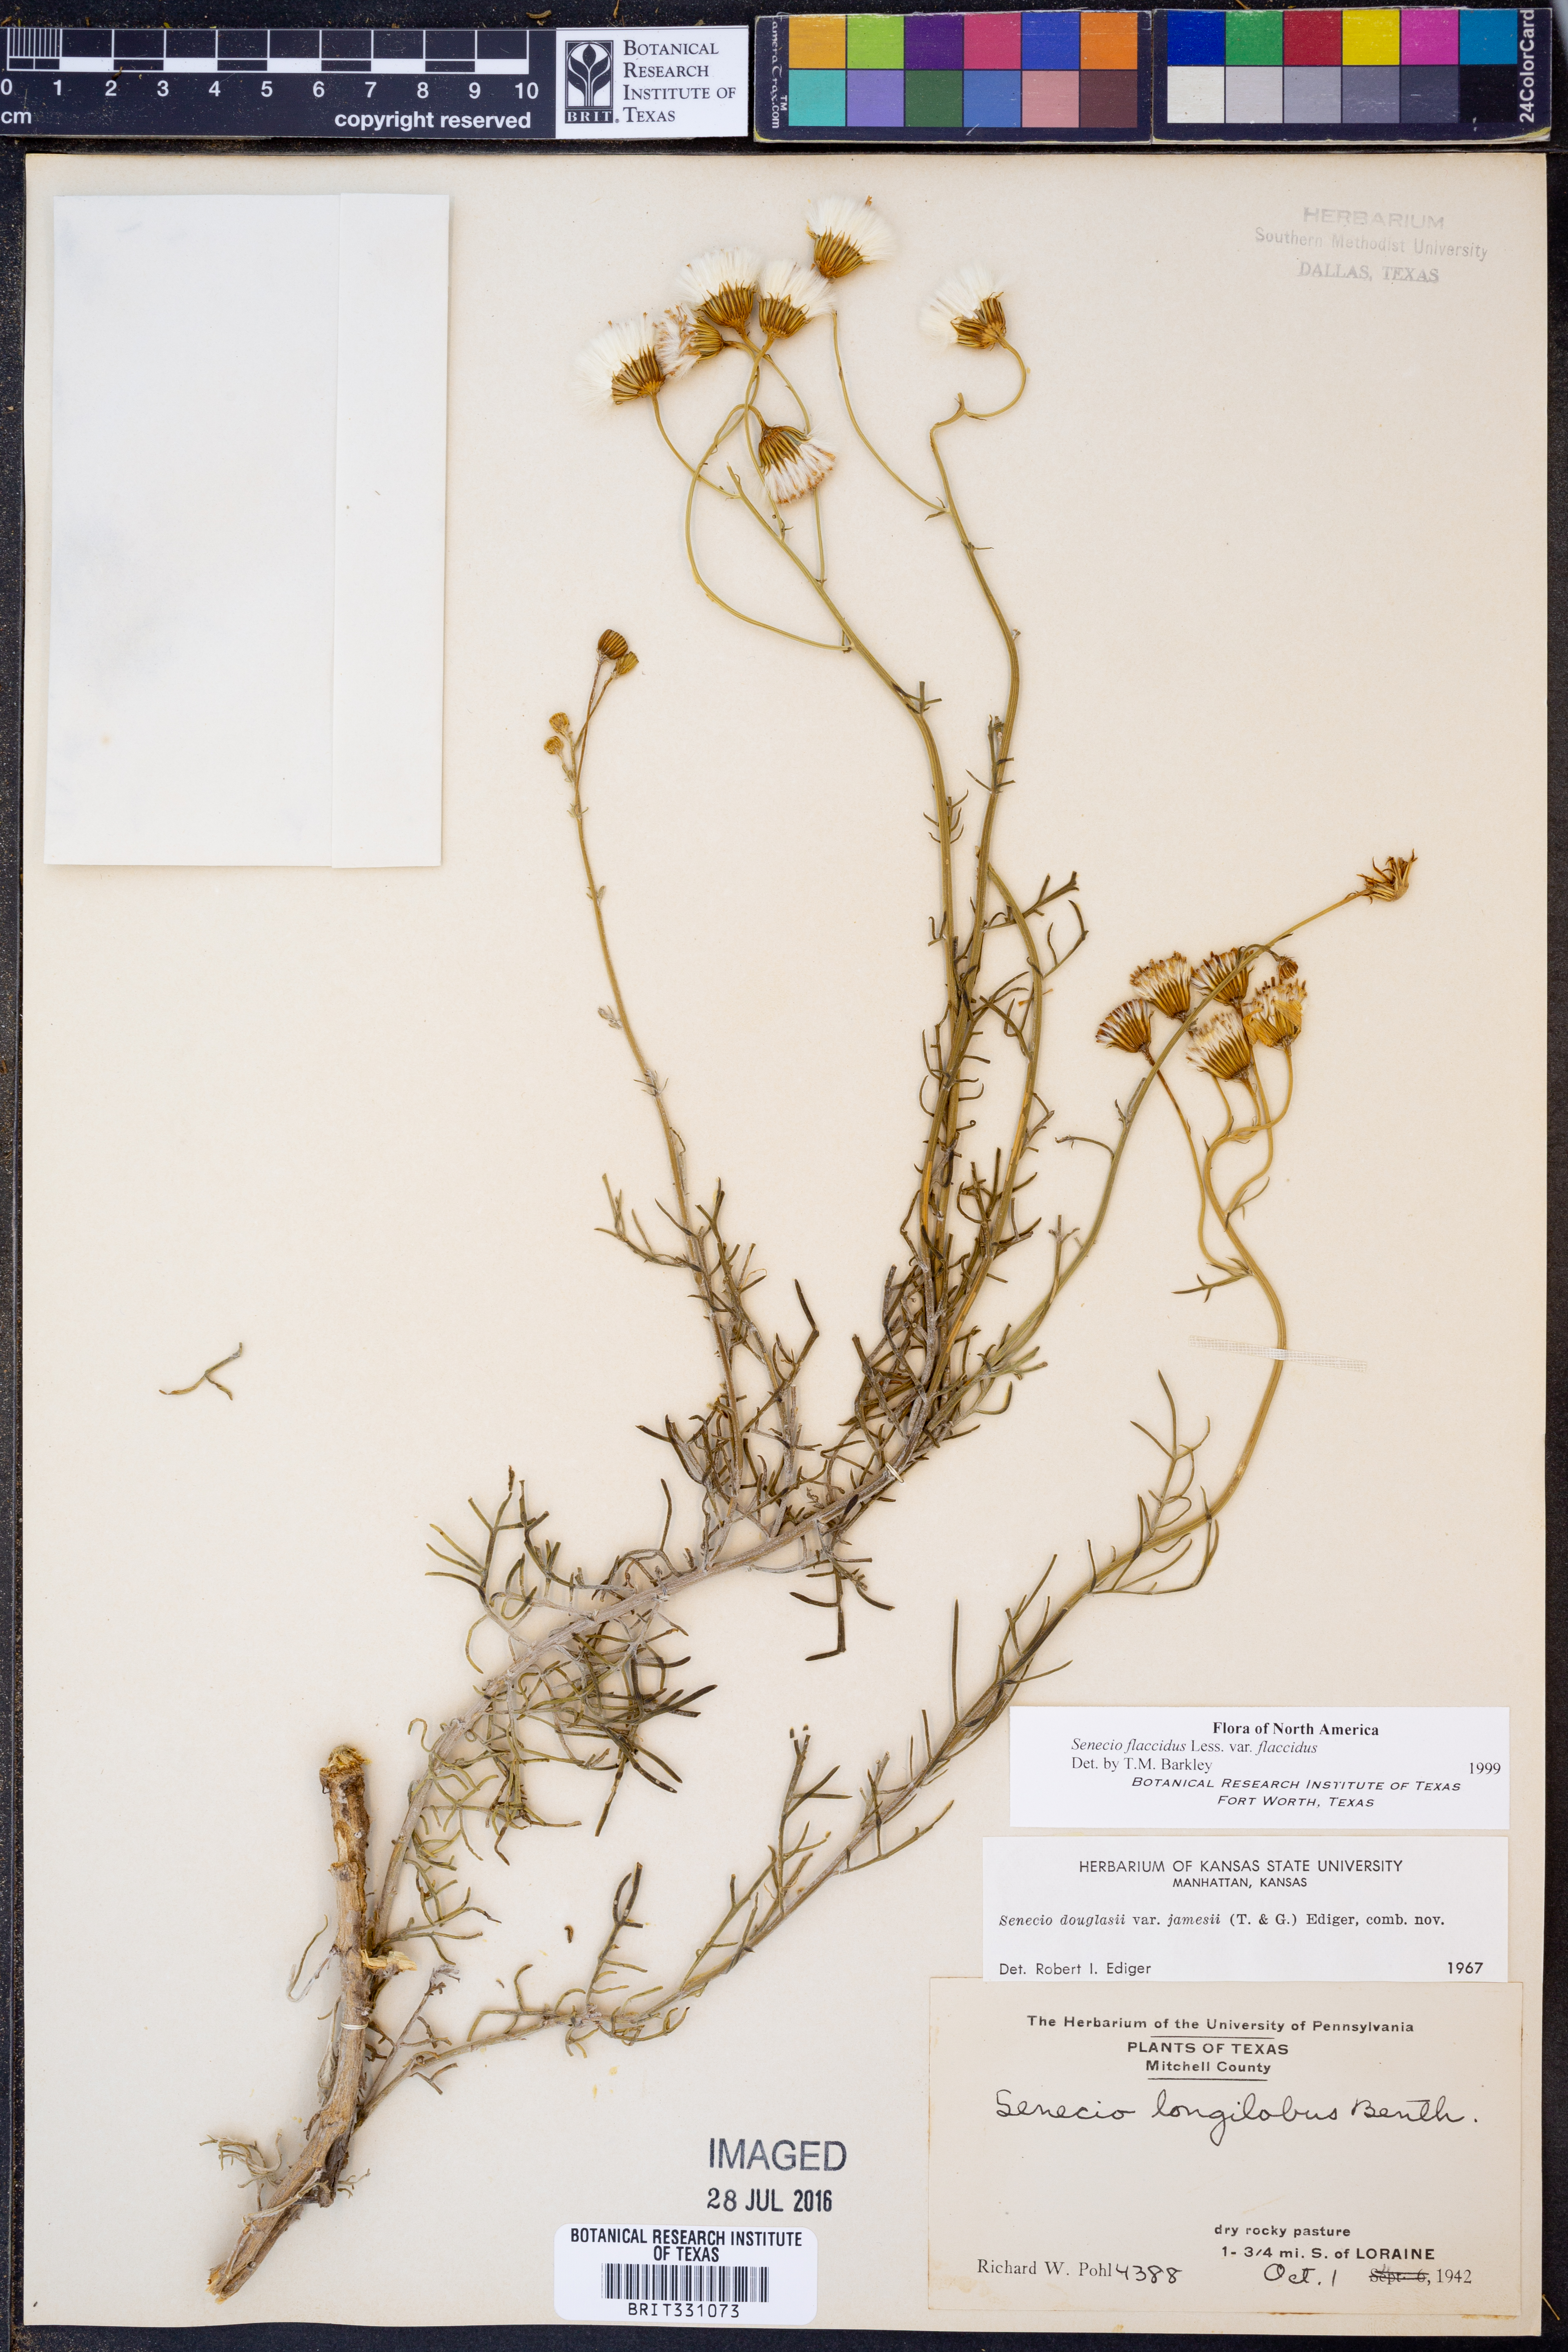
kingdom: Plantae
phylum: Tracheophyta
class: Magnoliopsida
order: Asterales
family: Asteraceae
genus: Senecio
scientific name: Senecio flaccidus
